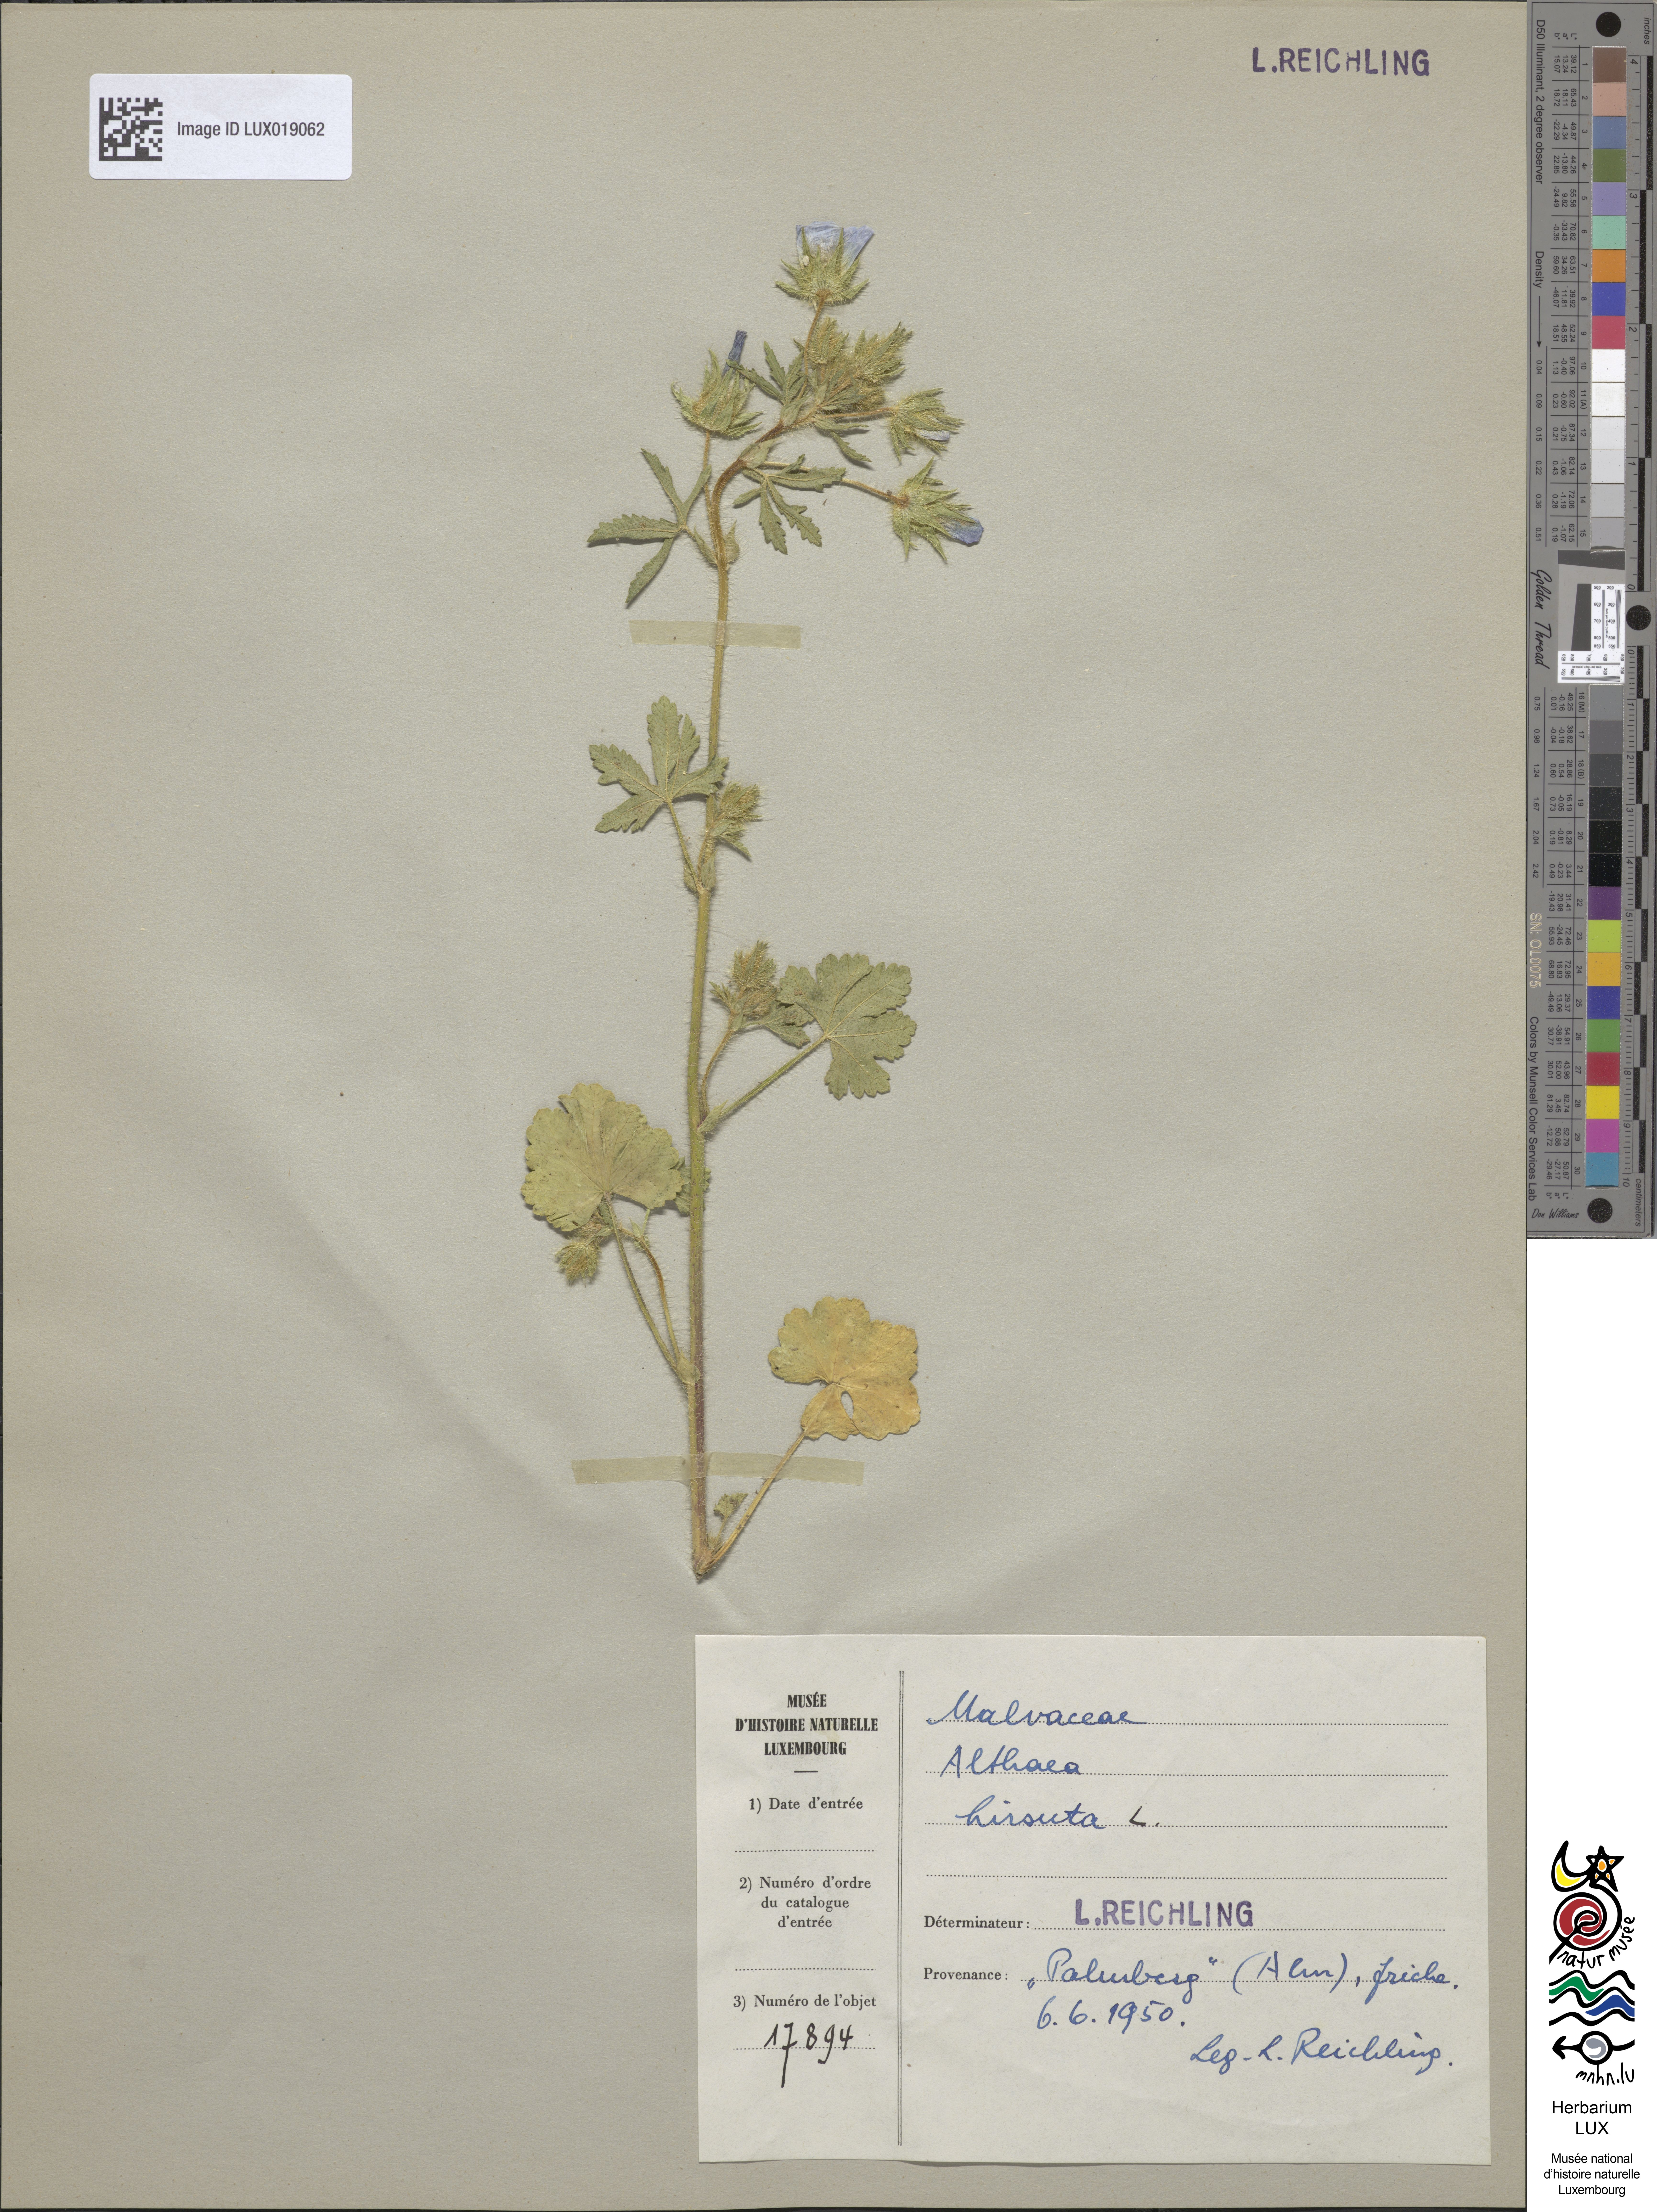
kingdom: Plantae
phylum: Tracheophyta
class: Magnoliopsida
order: Malvales
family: Malvaceae
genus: Althaea
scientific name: Althaea hirsuta
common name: Rough marsh-mallow
